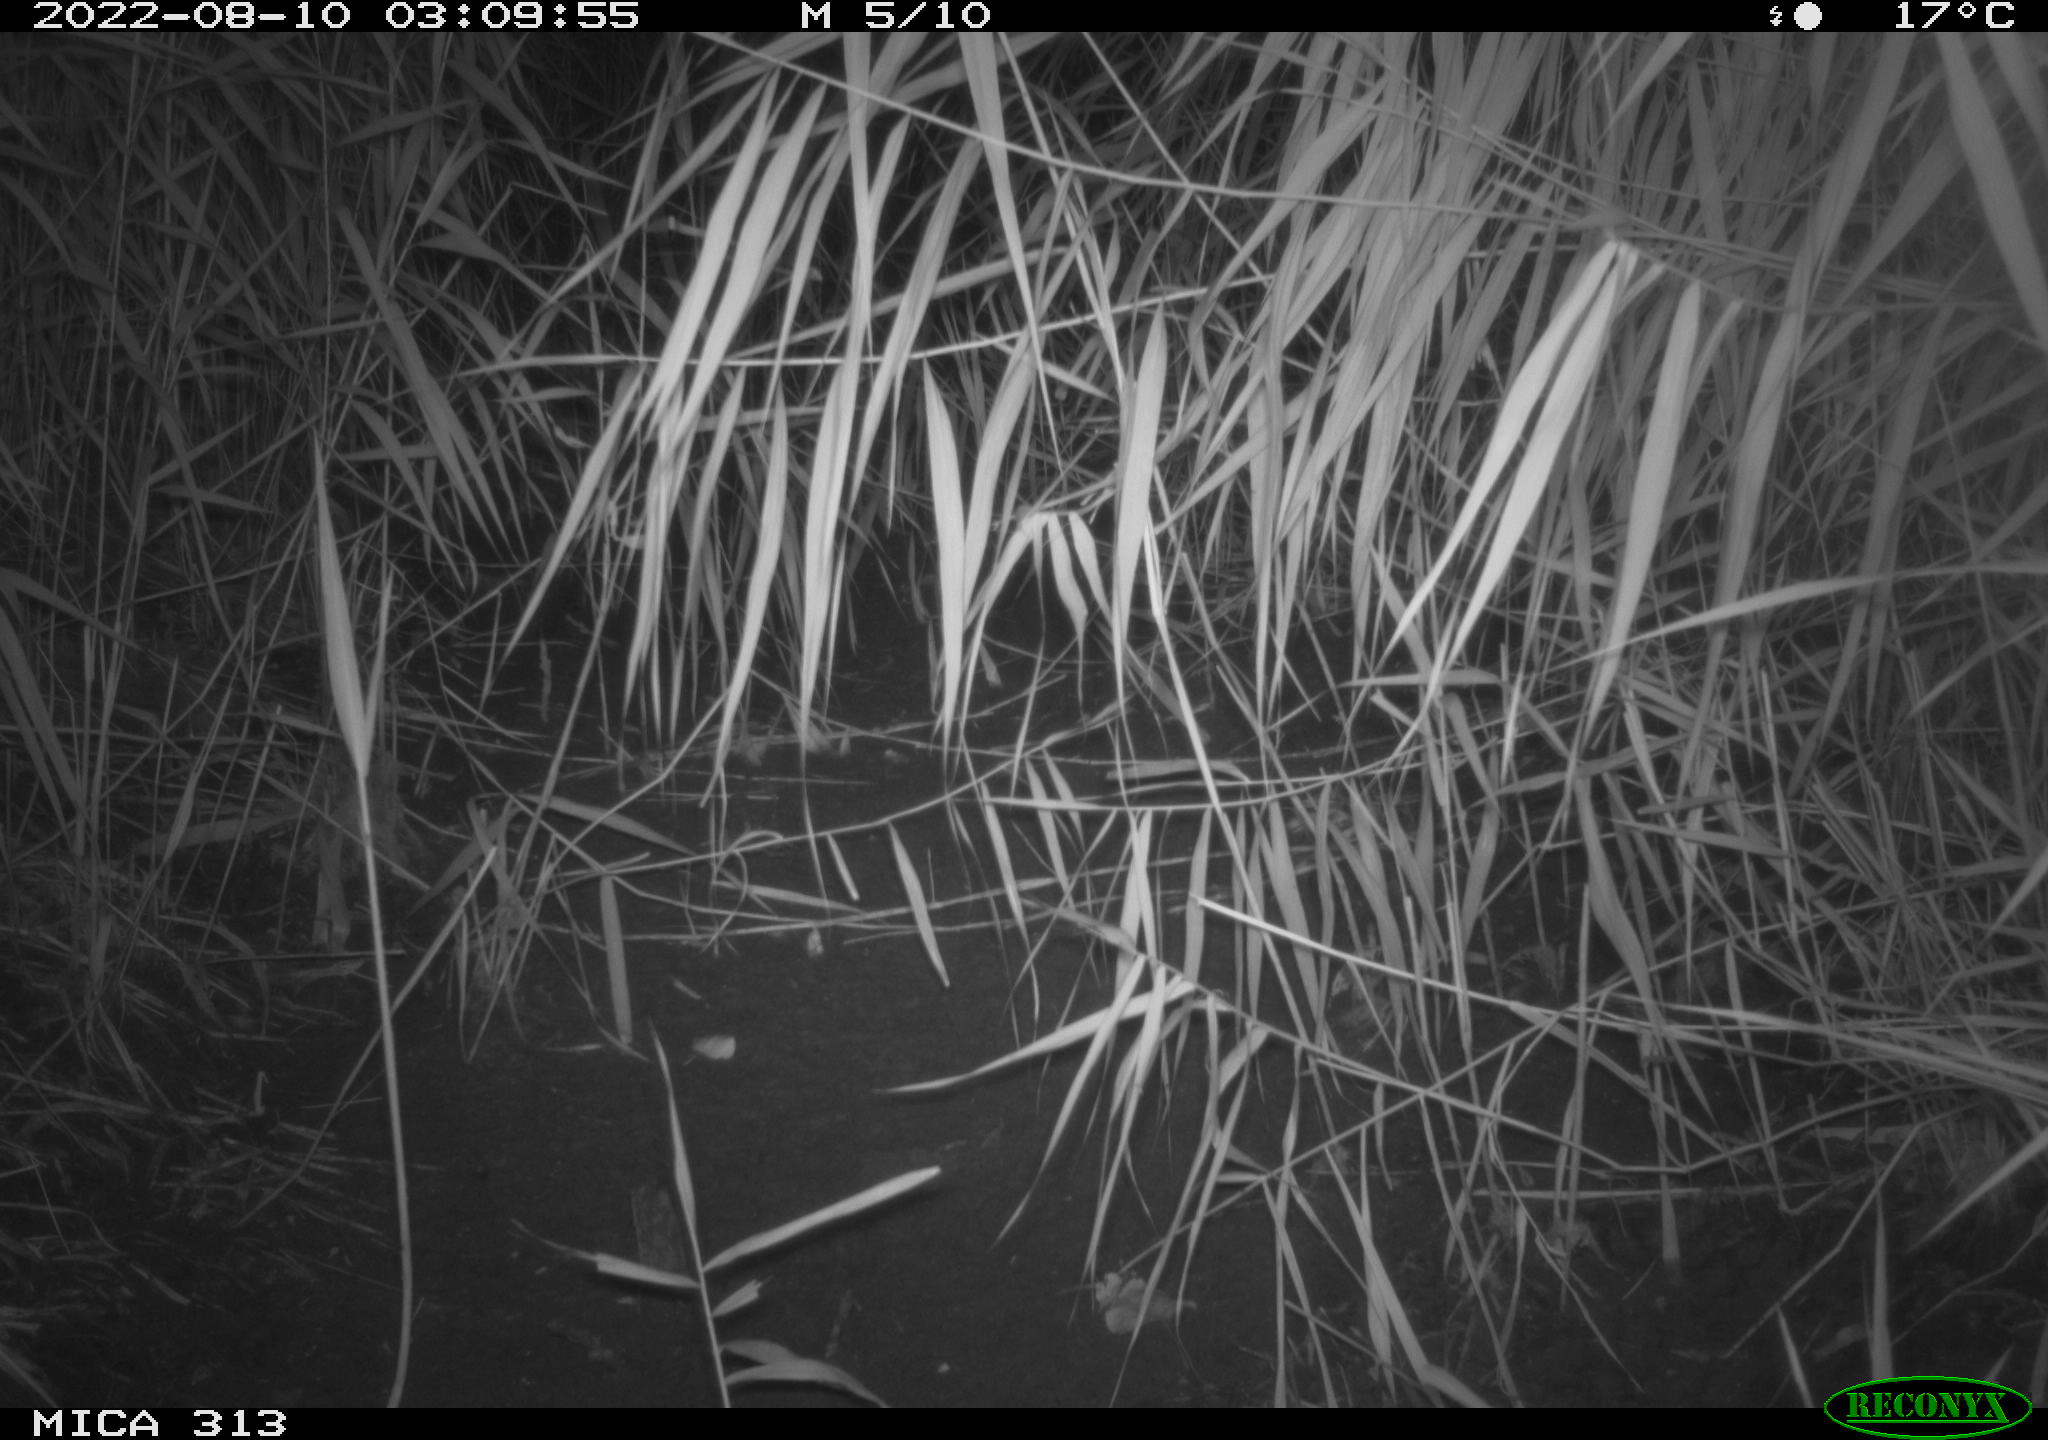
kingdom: Animalia
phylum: Chordata
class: Mammalia
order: Rodentia
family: Muridae
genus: Rattus
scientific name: Rattus norvegicus
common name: Brown rat
